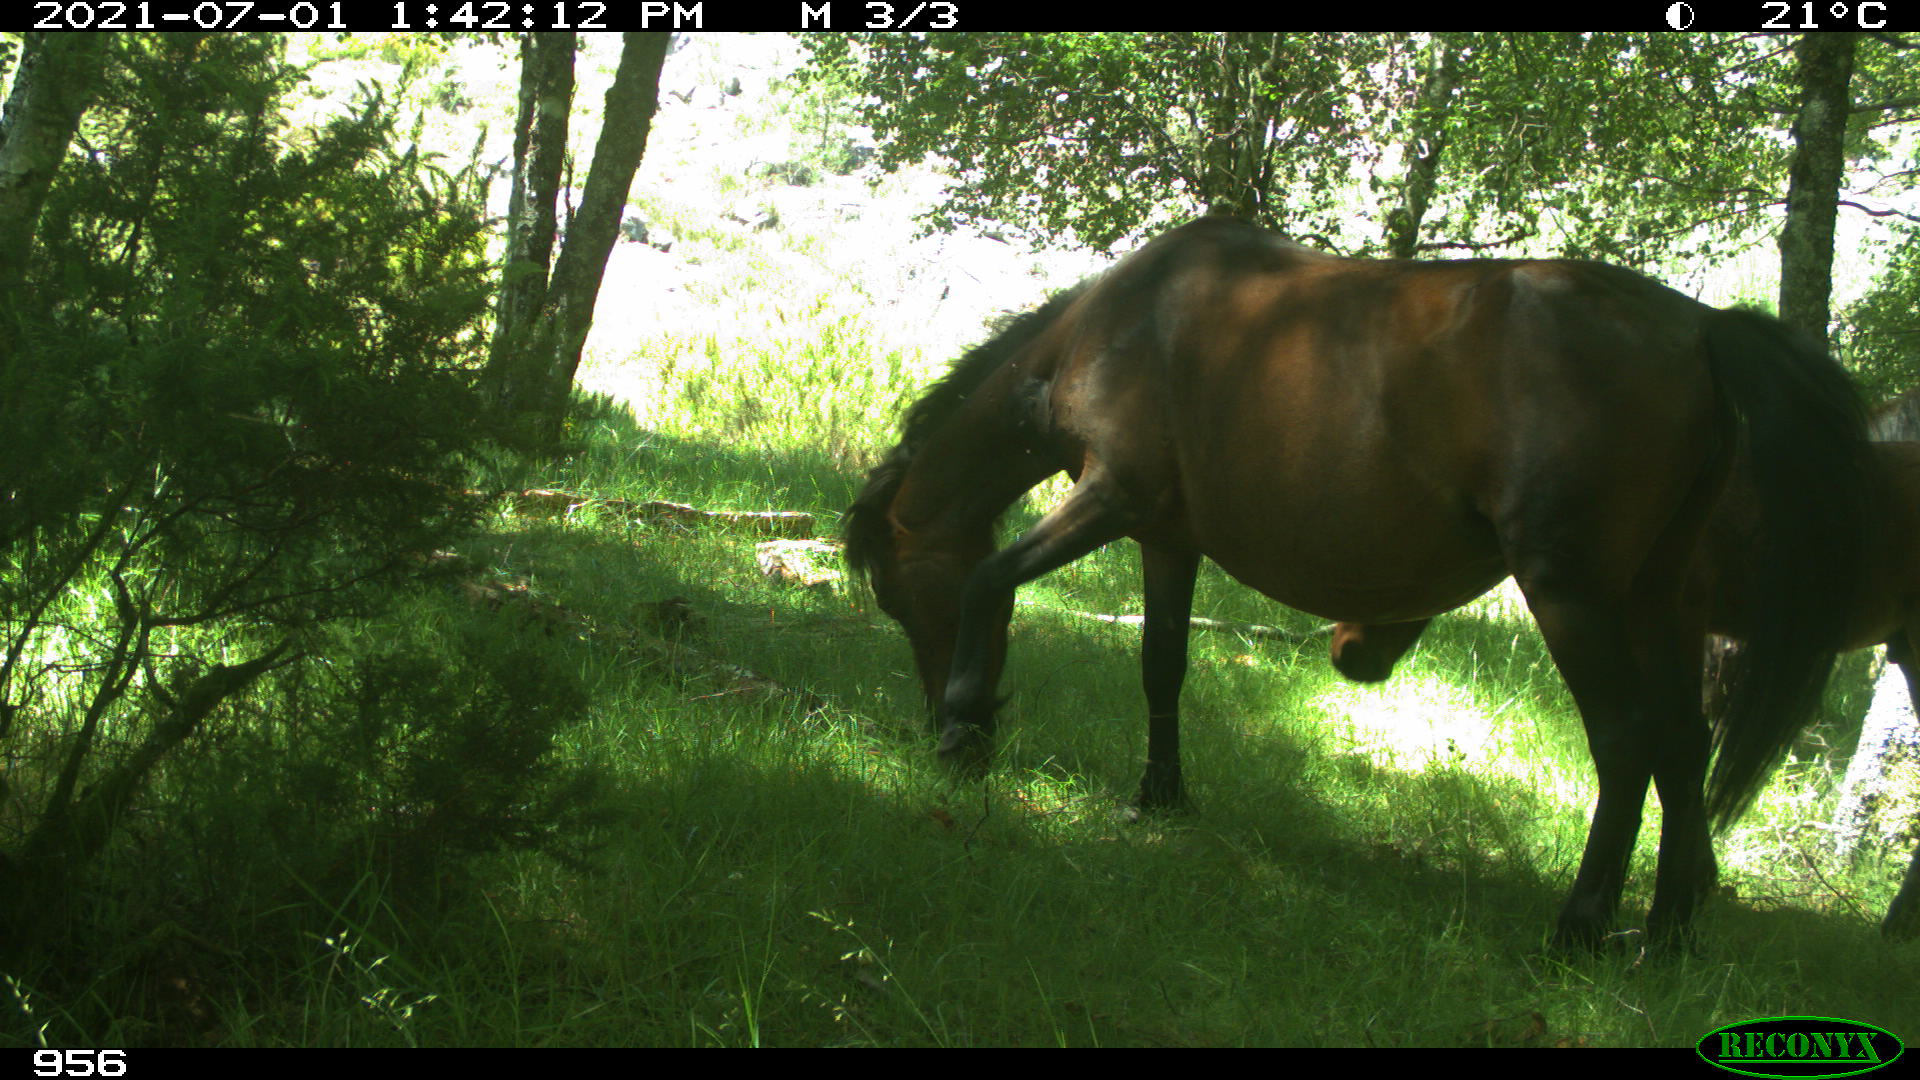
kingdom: Animalia
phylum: Chordata
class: Mammalia
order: Perissodactyla
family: Equidae
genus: Equus
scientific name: Equus caballus
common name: Horse
